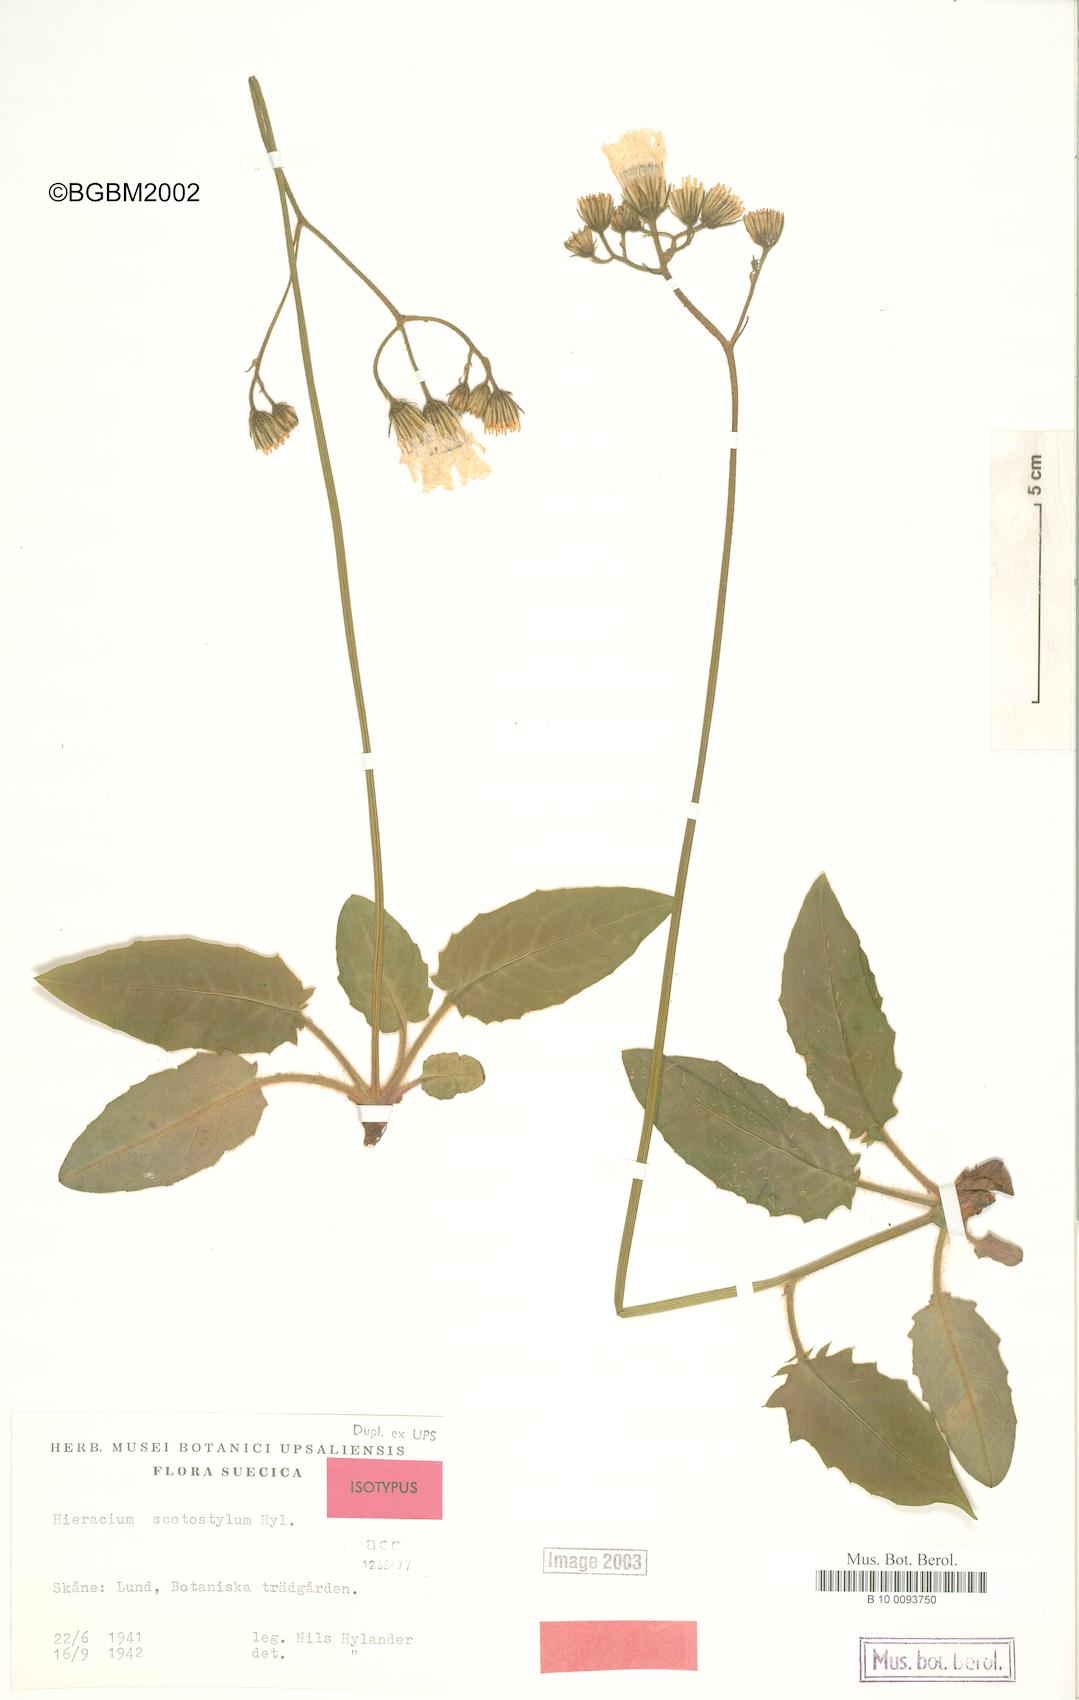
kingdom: Plantae
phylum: Tracheophyta
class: Magnoliopsida
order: Asterales
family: Asteraceae
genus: Hieracium
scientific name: Hieracium glaucinum
